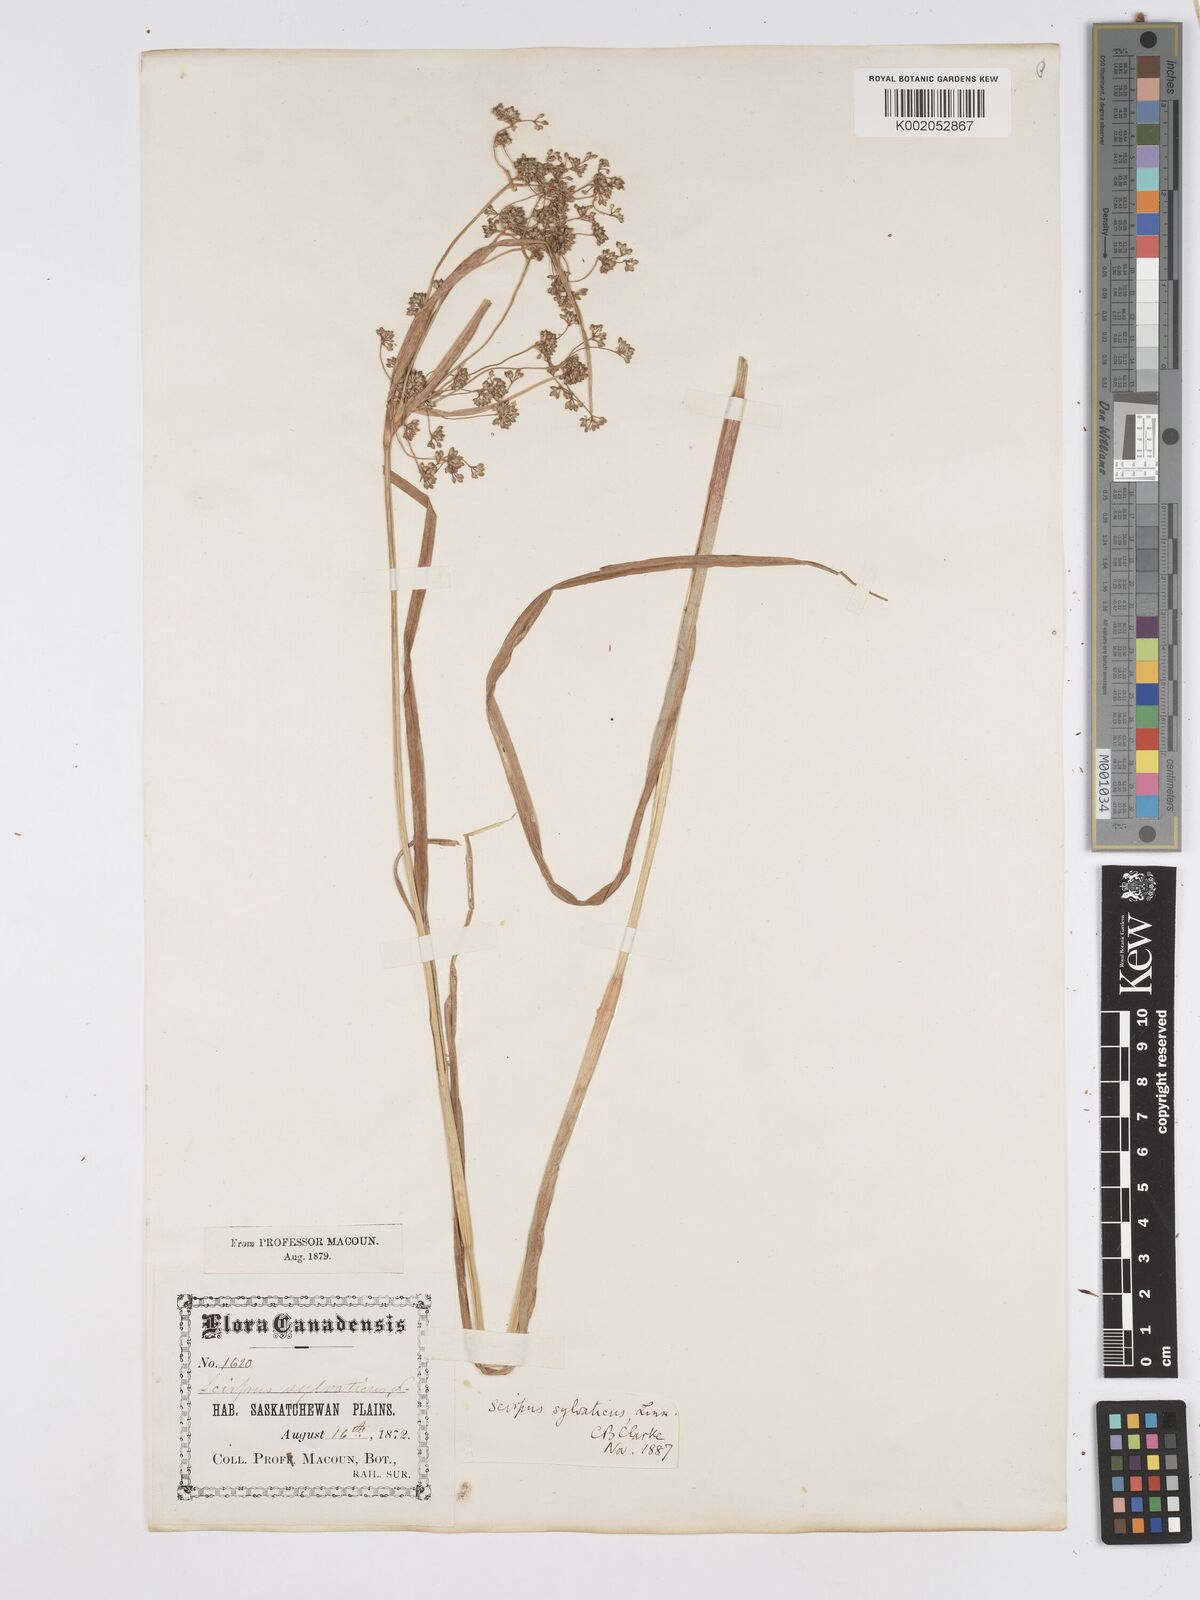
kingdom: Plantae
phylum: Tracheophyta
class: Liliopsida
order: Poales
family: Cyperaceae
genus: Scirpus
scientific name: Scirpus sylvaticus
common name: Wood club-rush
